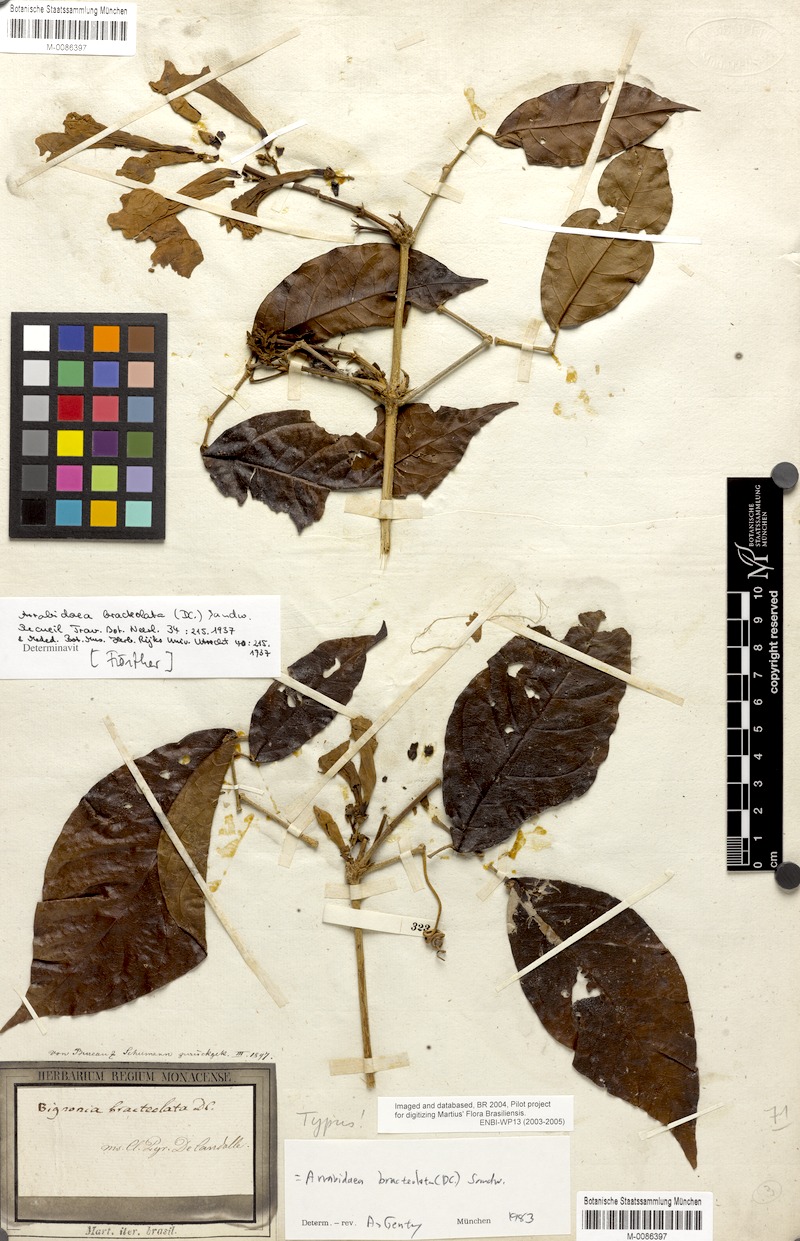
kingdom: Plantae
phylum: Tracheophyta
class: Magnoliopsida
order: Lamiales
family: Bignoniaceae
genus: Cuspidaria
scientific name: Cuspidaria bracteolata
